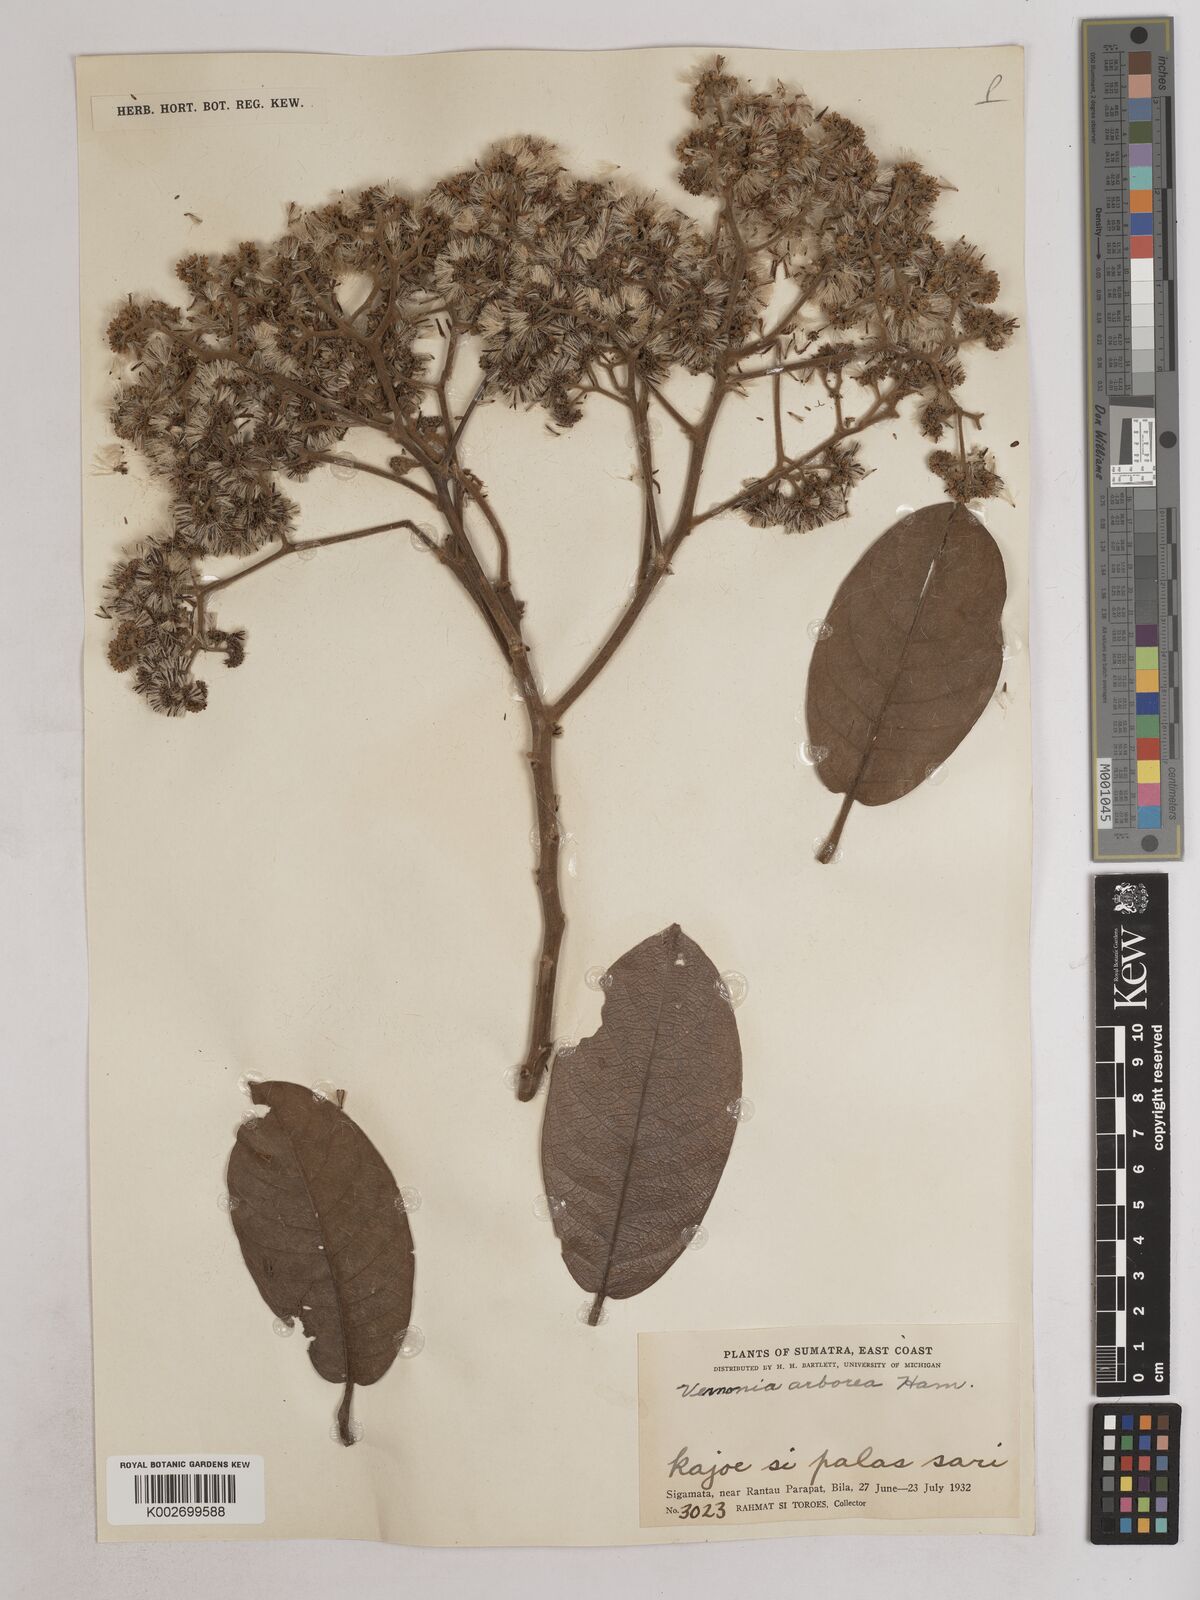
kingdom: Plantae
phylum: Tracheophyta
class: Magnoliopsida
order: Asterales
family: Asteraceae
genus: Strobocalyx
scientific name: Strobocalyx arborea
